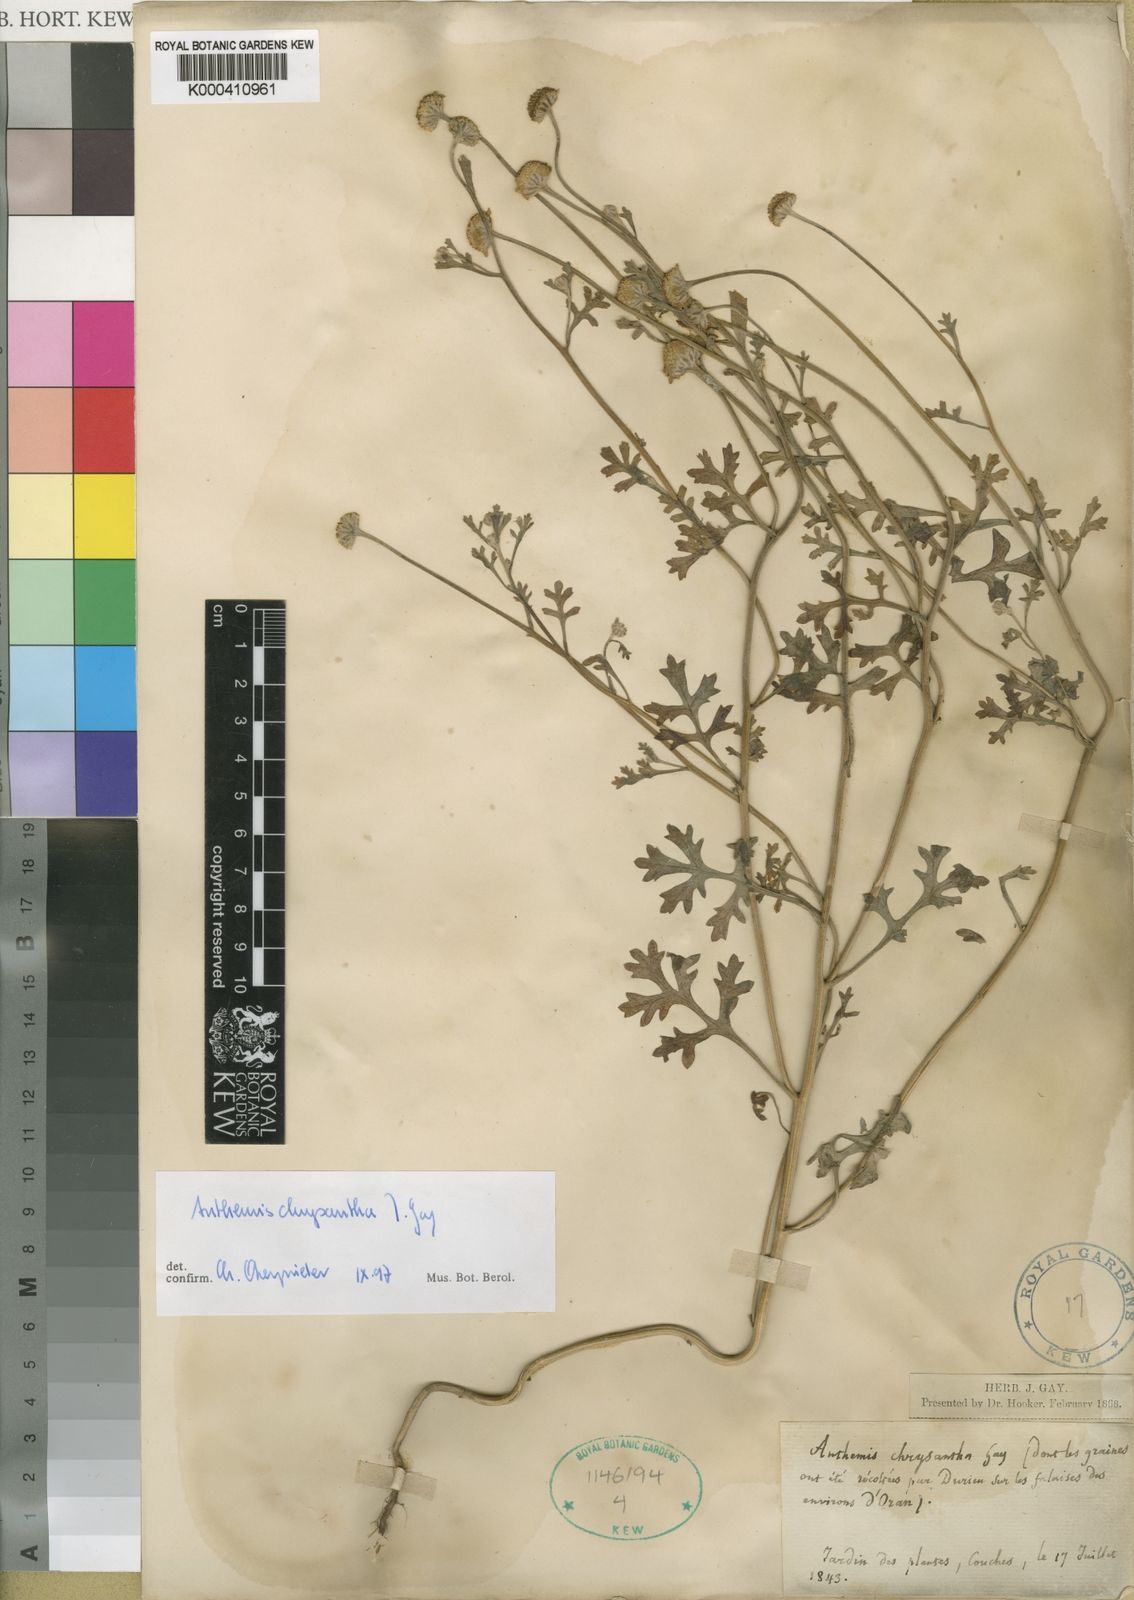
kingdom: Plantae
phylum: Tracheophyta
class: Magnoliopsida
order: Asterales
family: Asteraceae
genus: Anthemis
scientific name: Anthemis chrysantha
